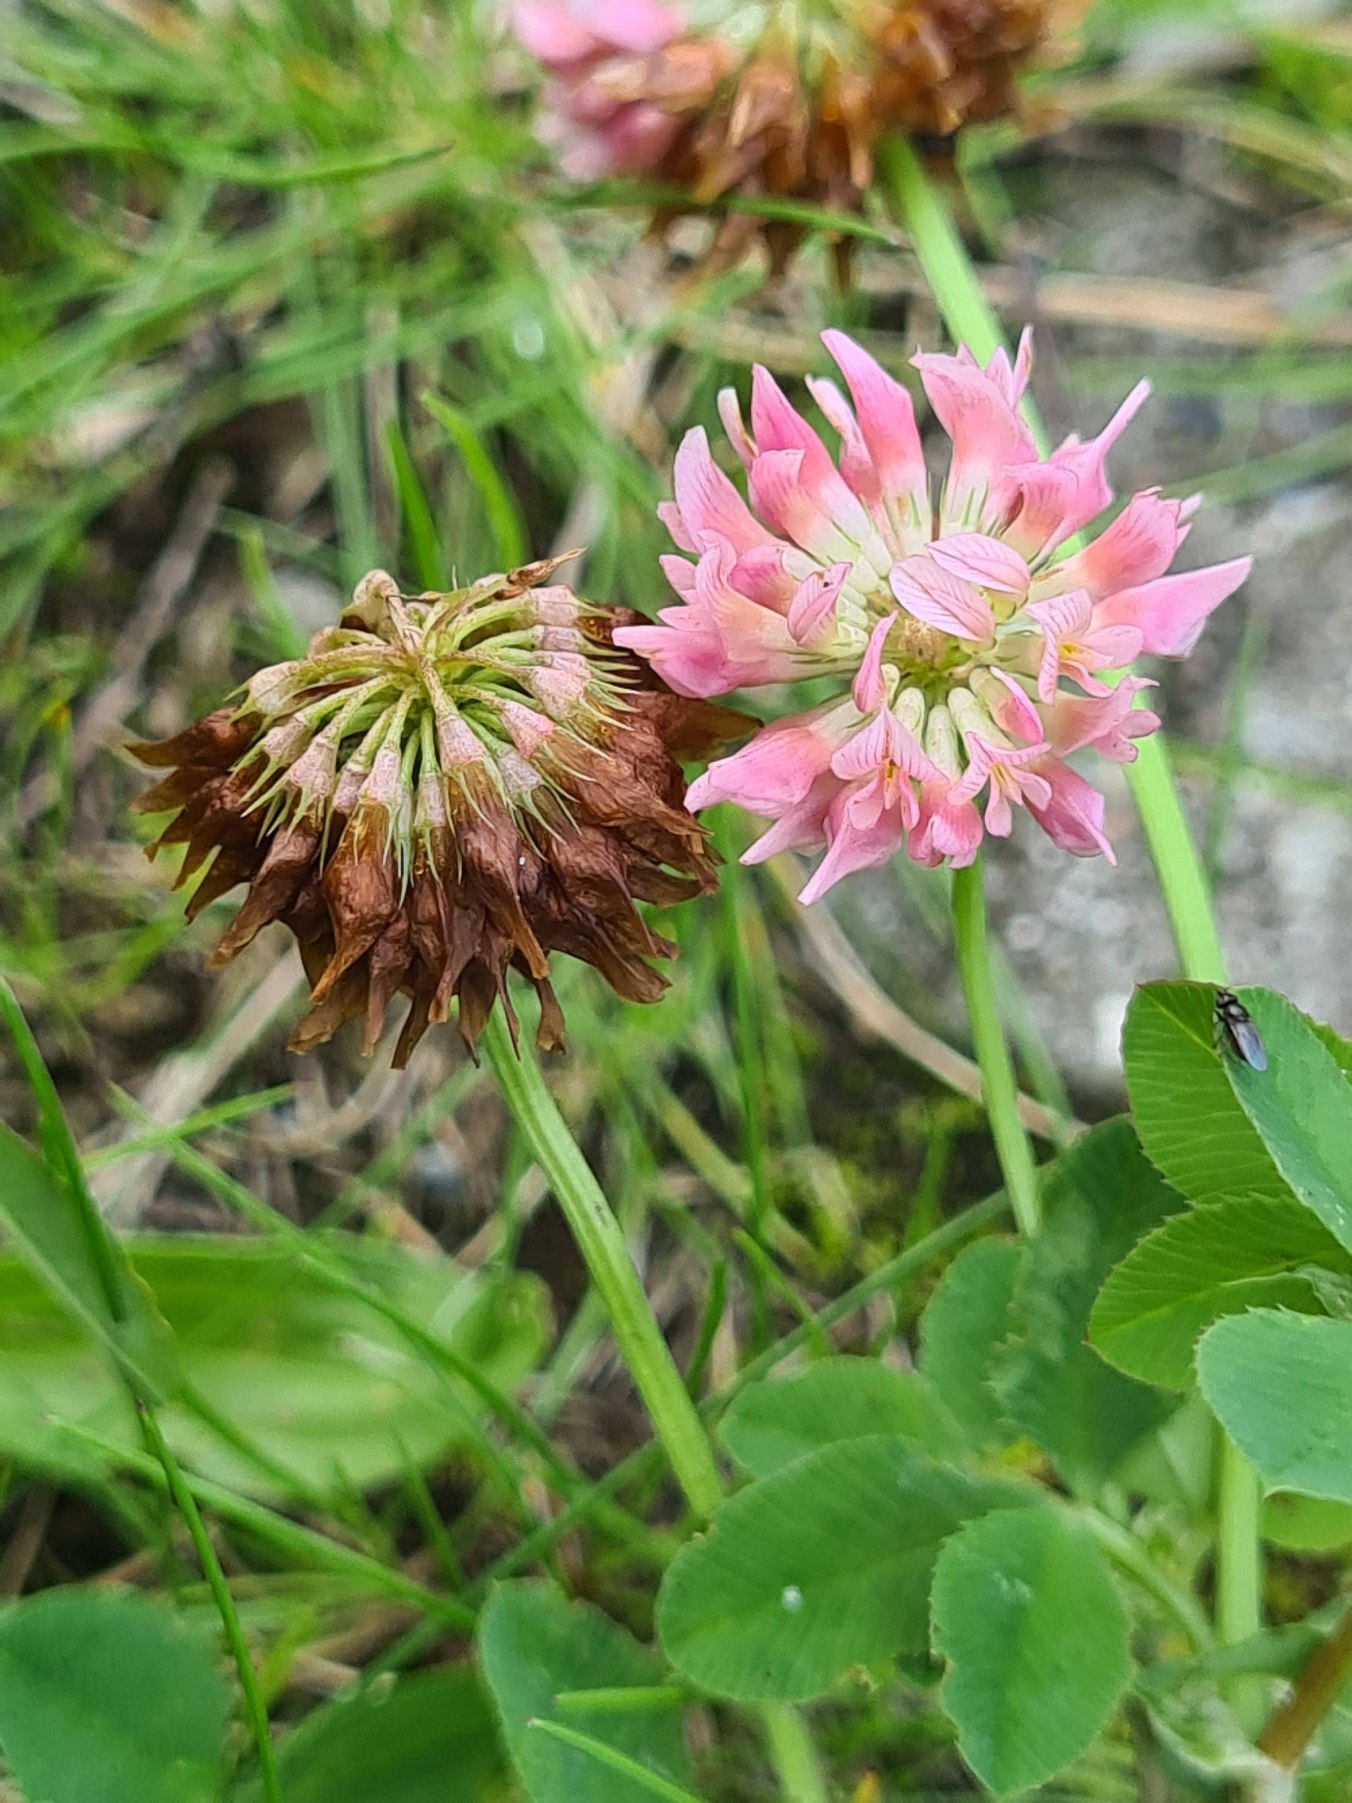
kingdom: Plantae
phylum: Tracheophyta
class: Magnoliopsida
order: Fabales
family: Fabaceae
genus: Trifolium
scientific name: Trifolium hybridum
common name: Alsike-kløver
